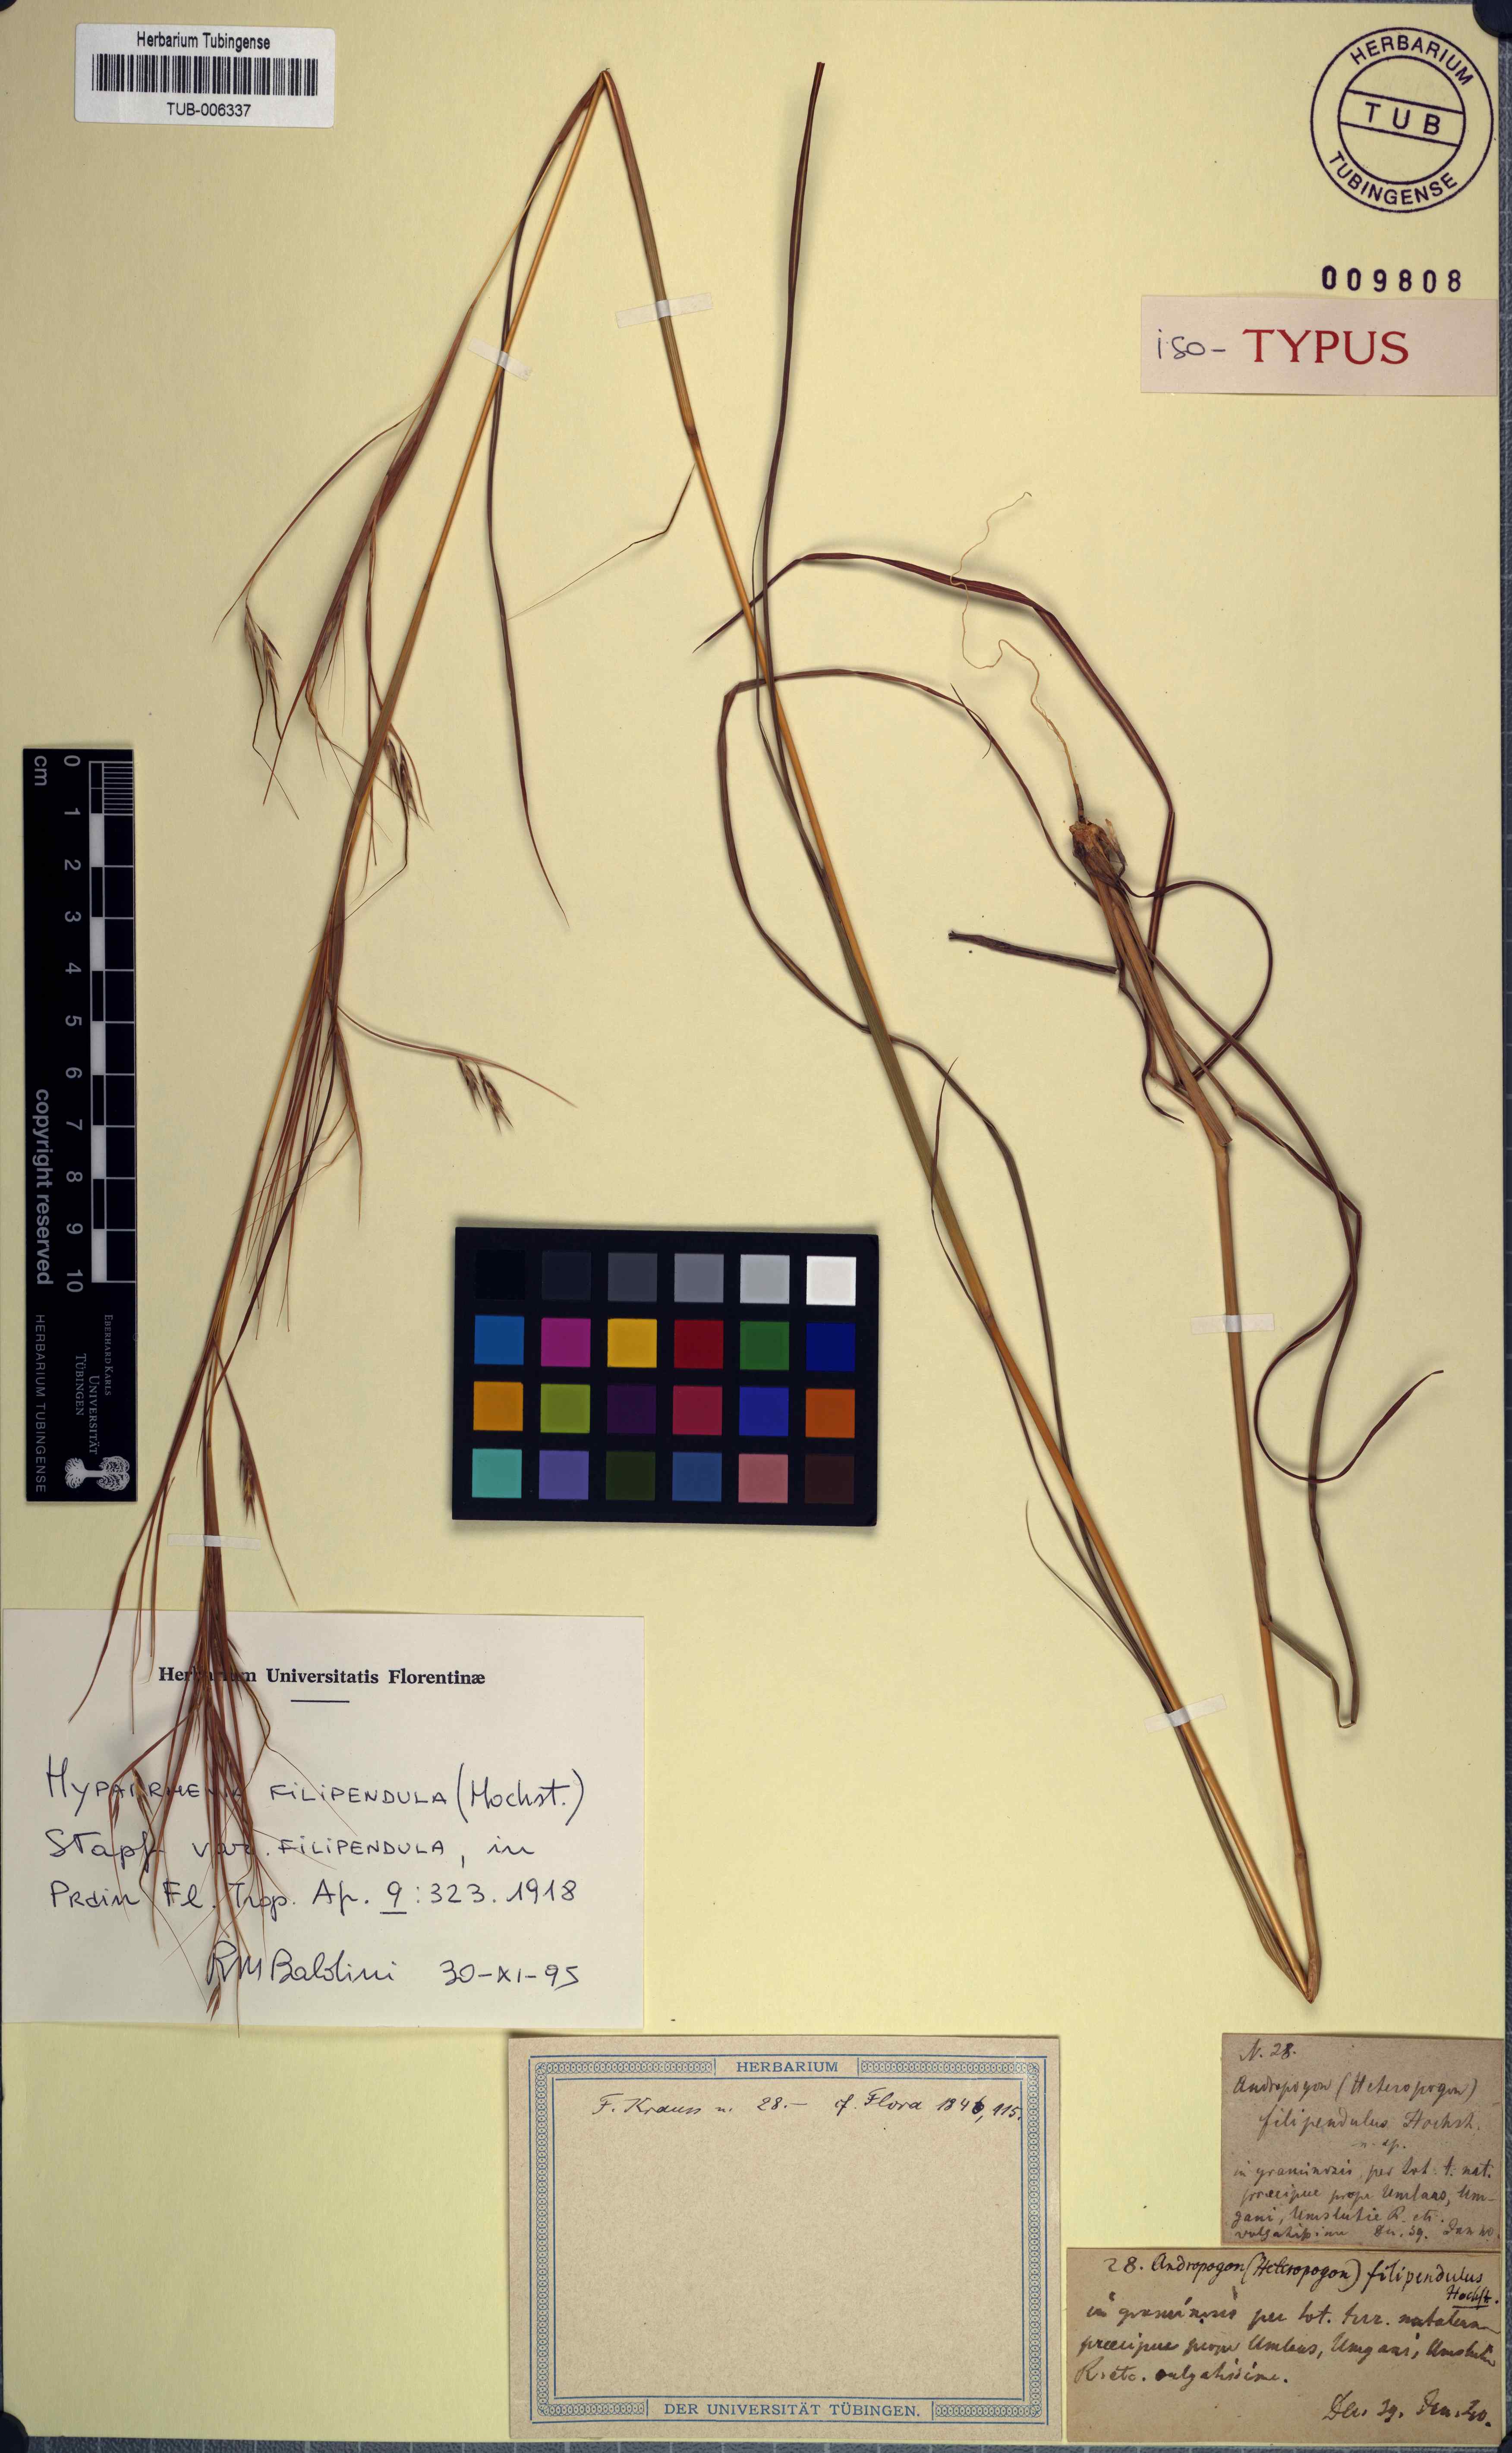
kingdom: Plantae
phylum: Tracheophyta
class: Liliopsida
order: Poales
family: Poaceae
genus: Hyparrhenia
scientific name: Hyparrhenia filipendula
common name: Tambookie grass
